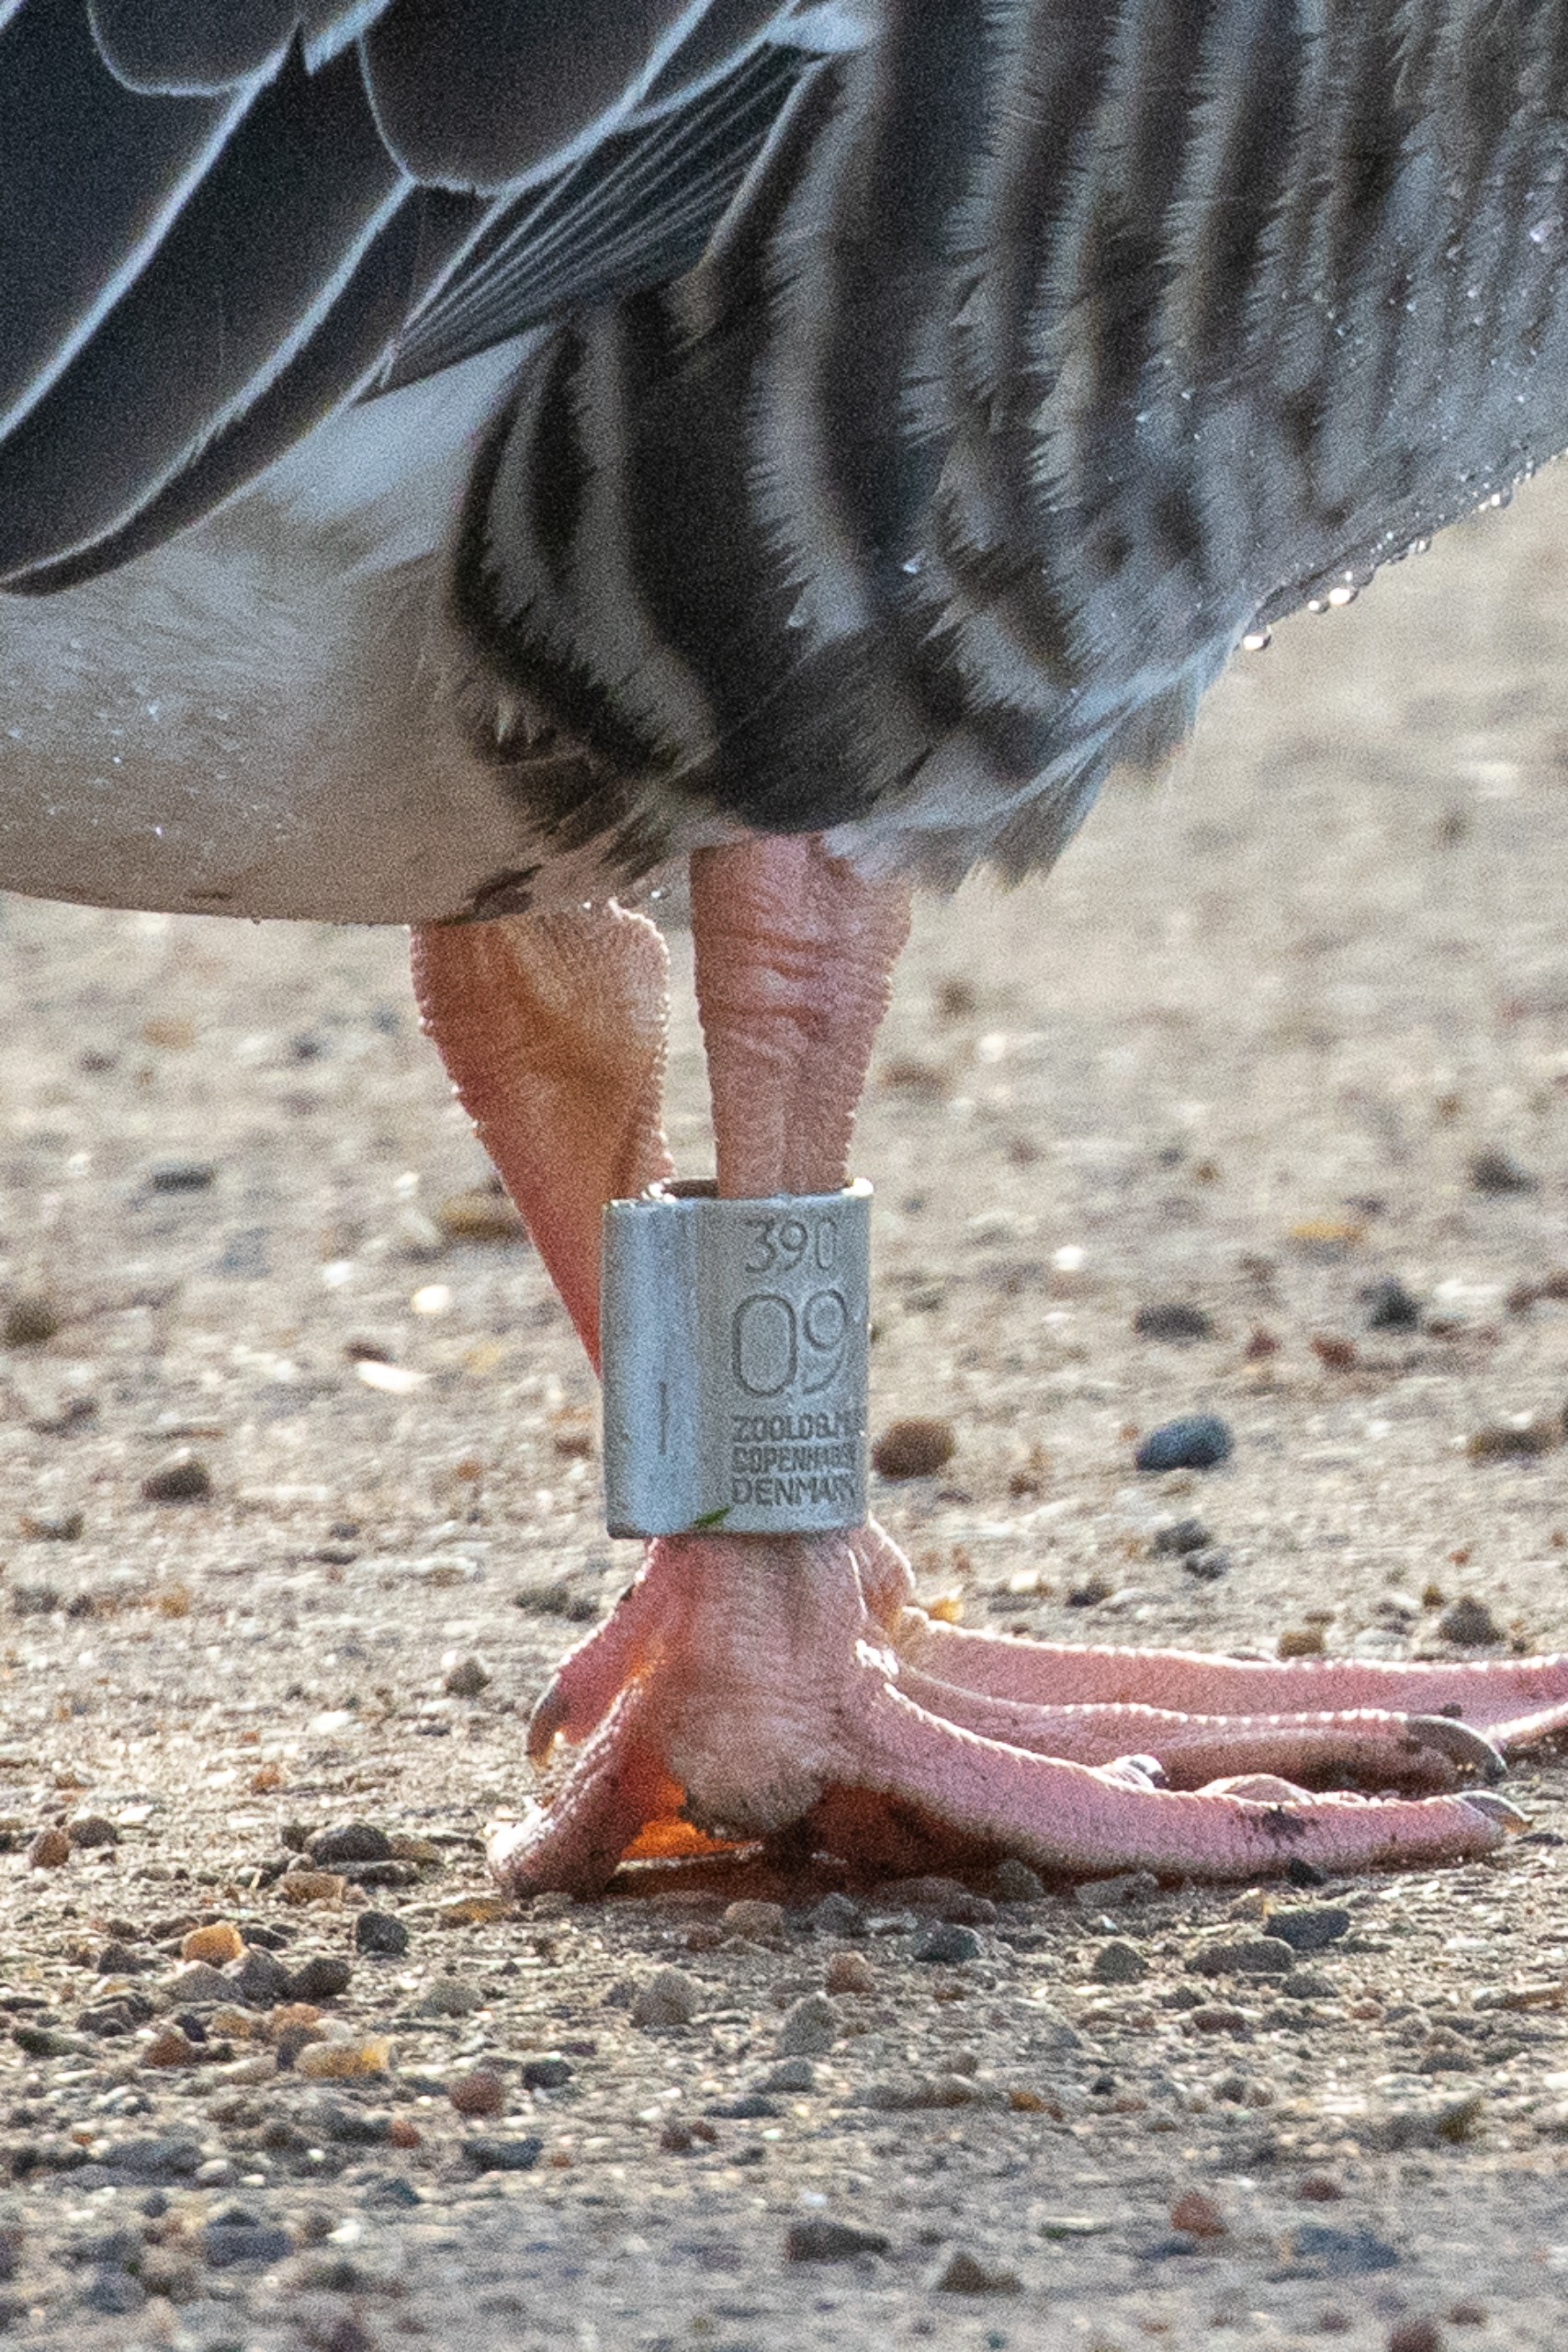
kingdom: Animalia
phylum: Chordata
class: Aves
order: Anseriformes
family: Anatidae
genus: Anser
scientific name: Anser anser
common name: Grågås
